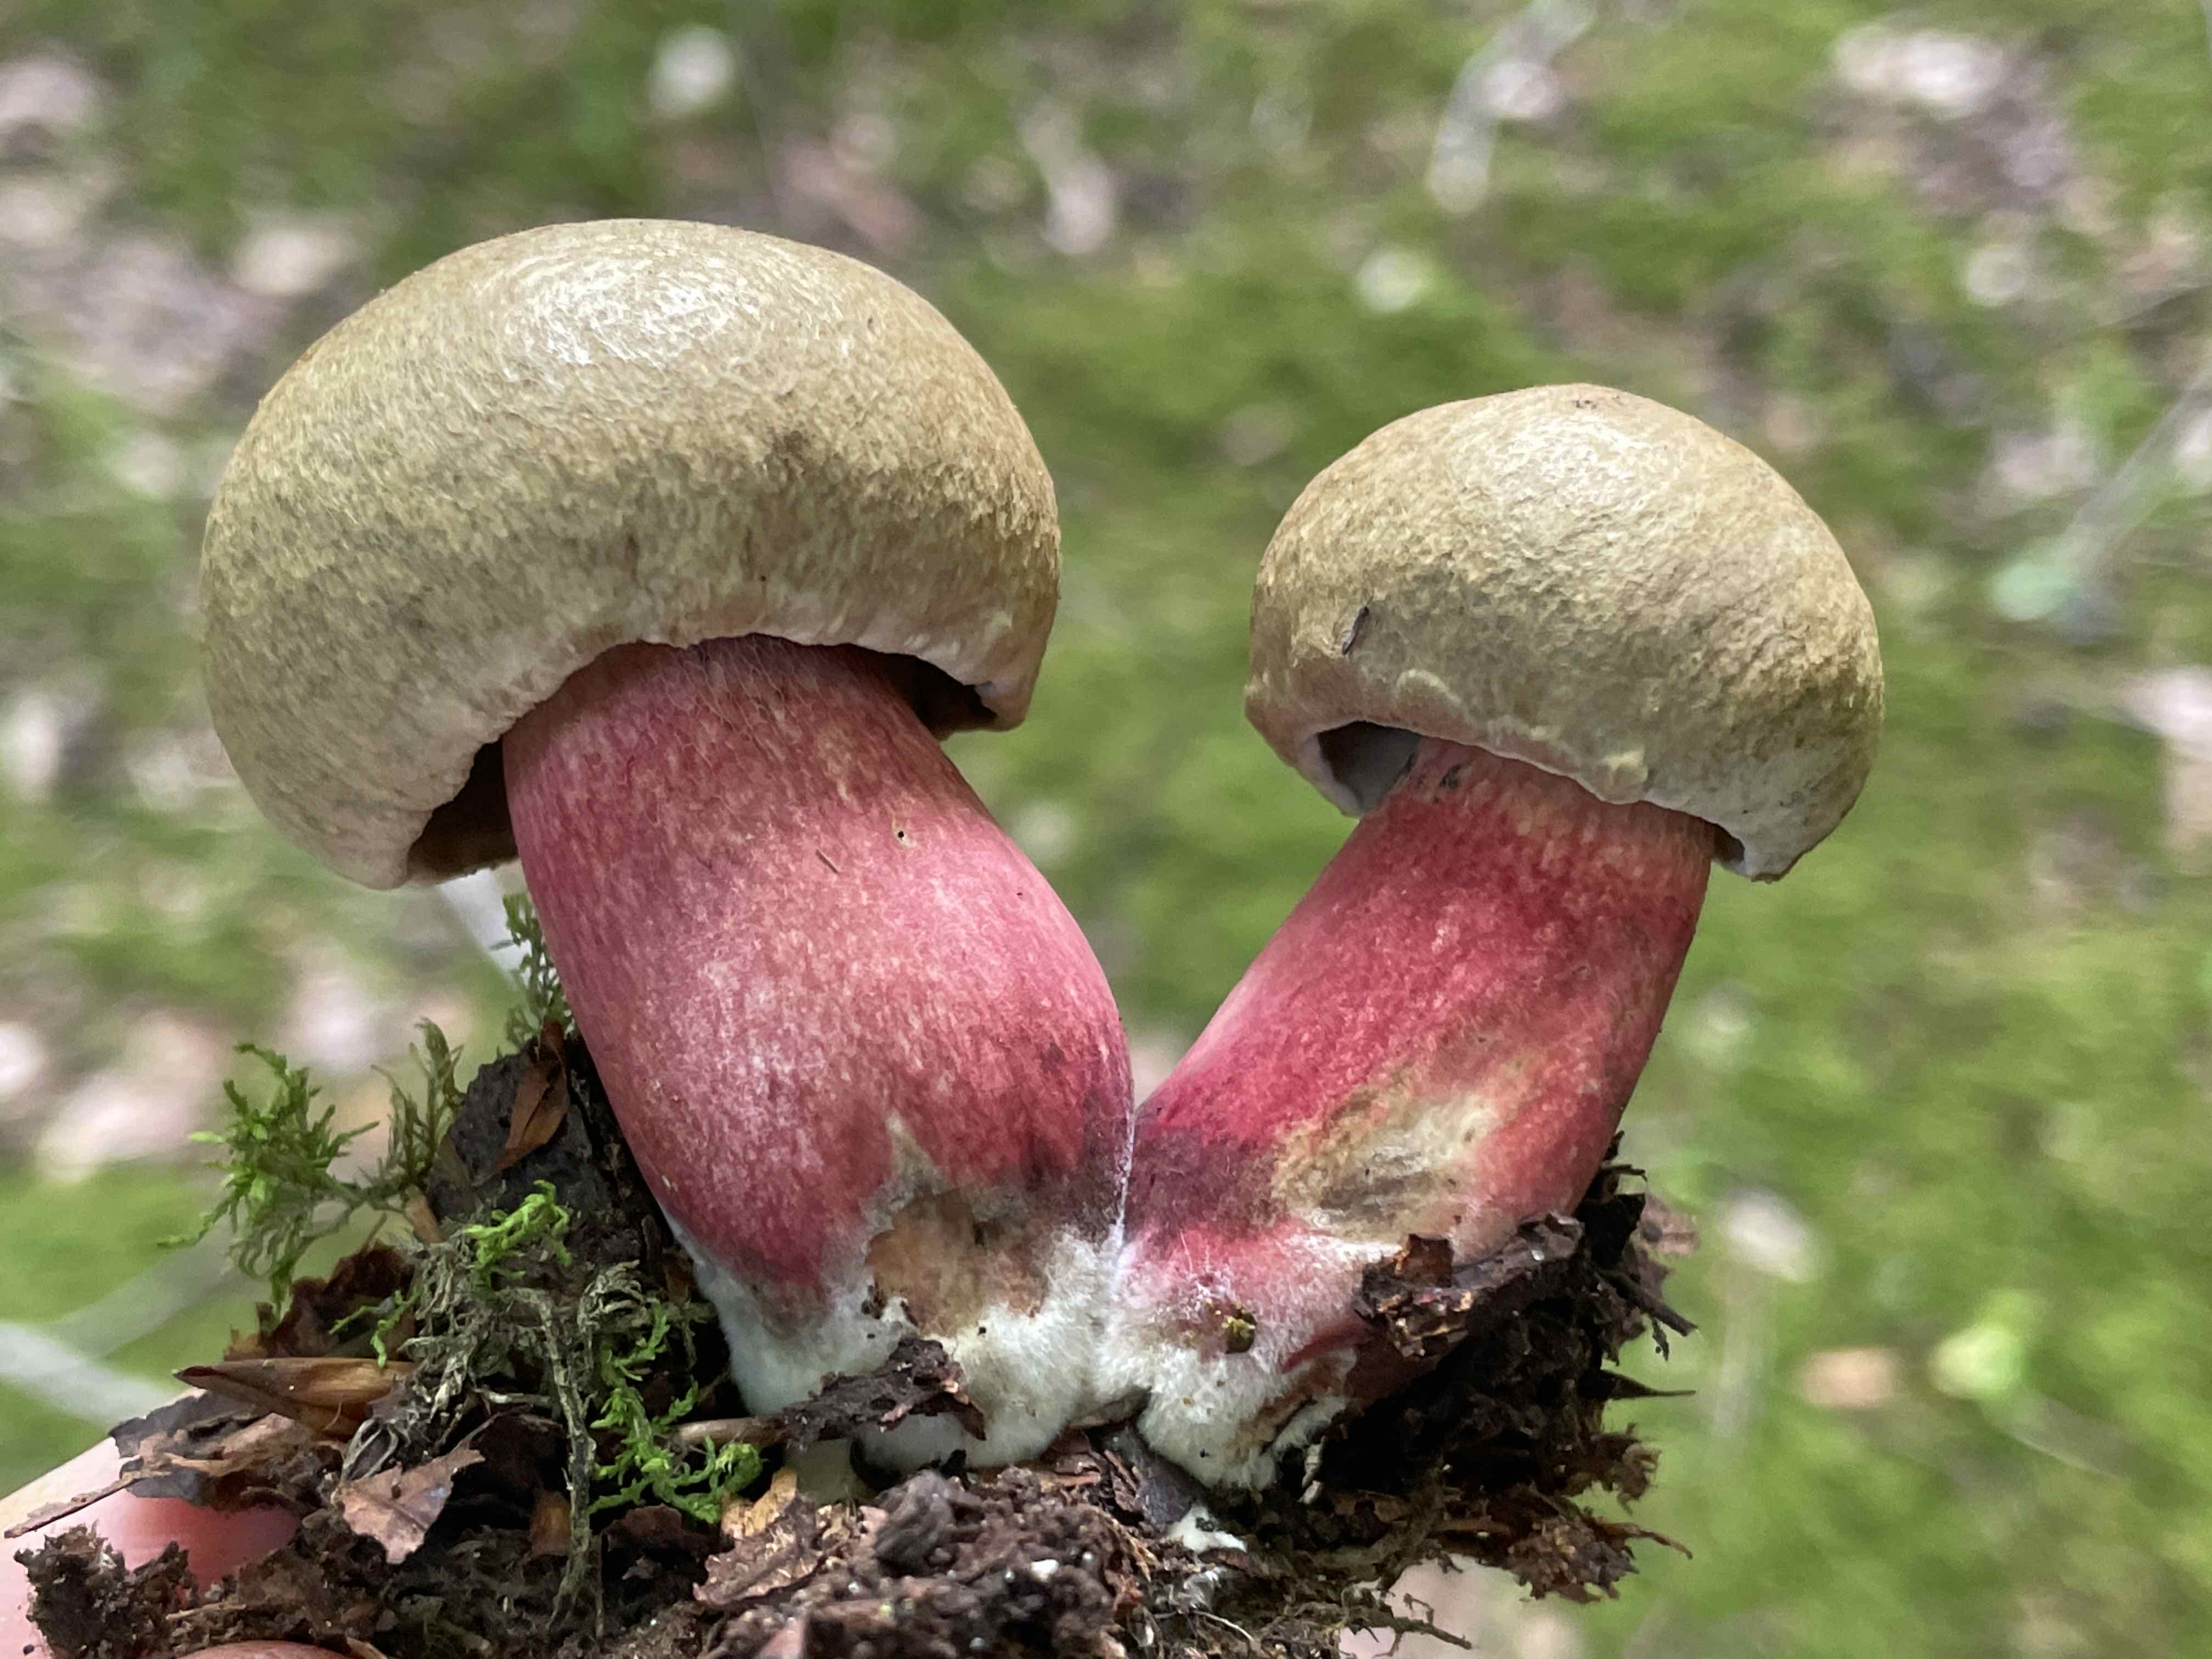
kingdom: Fungi
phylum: Basidiomycota
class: Agaricomycetes
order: Boletales
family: Boletaceae
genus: Caloboletus
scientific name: Caloboletus calopus
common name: skønfodet rørhat
